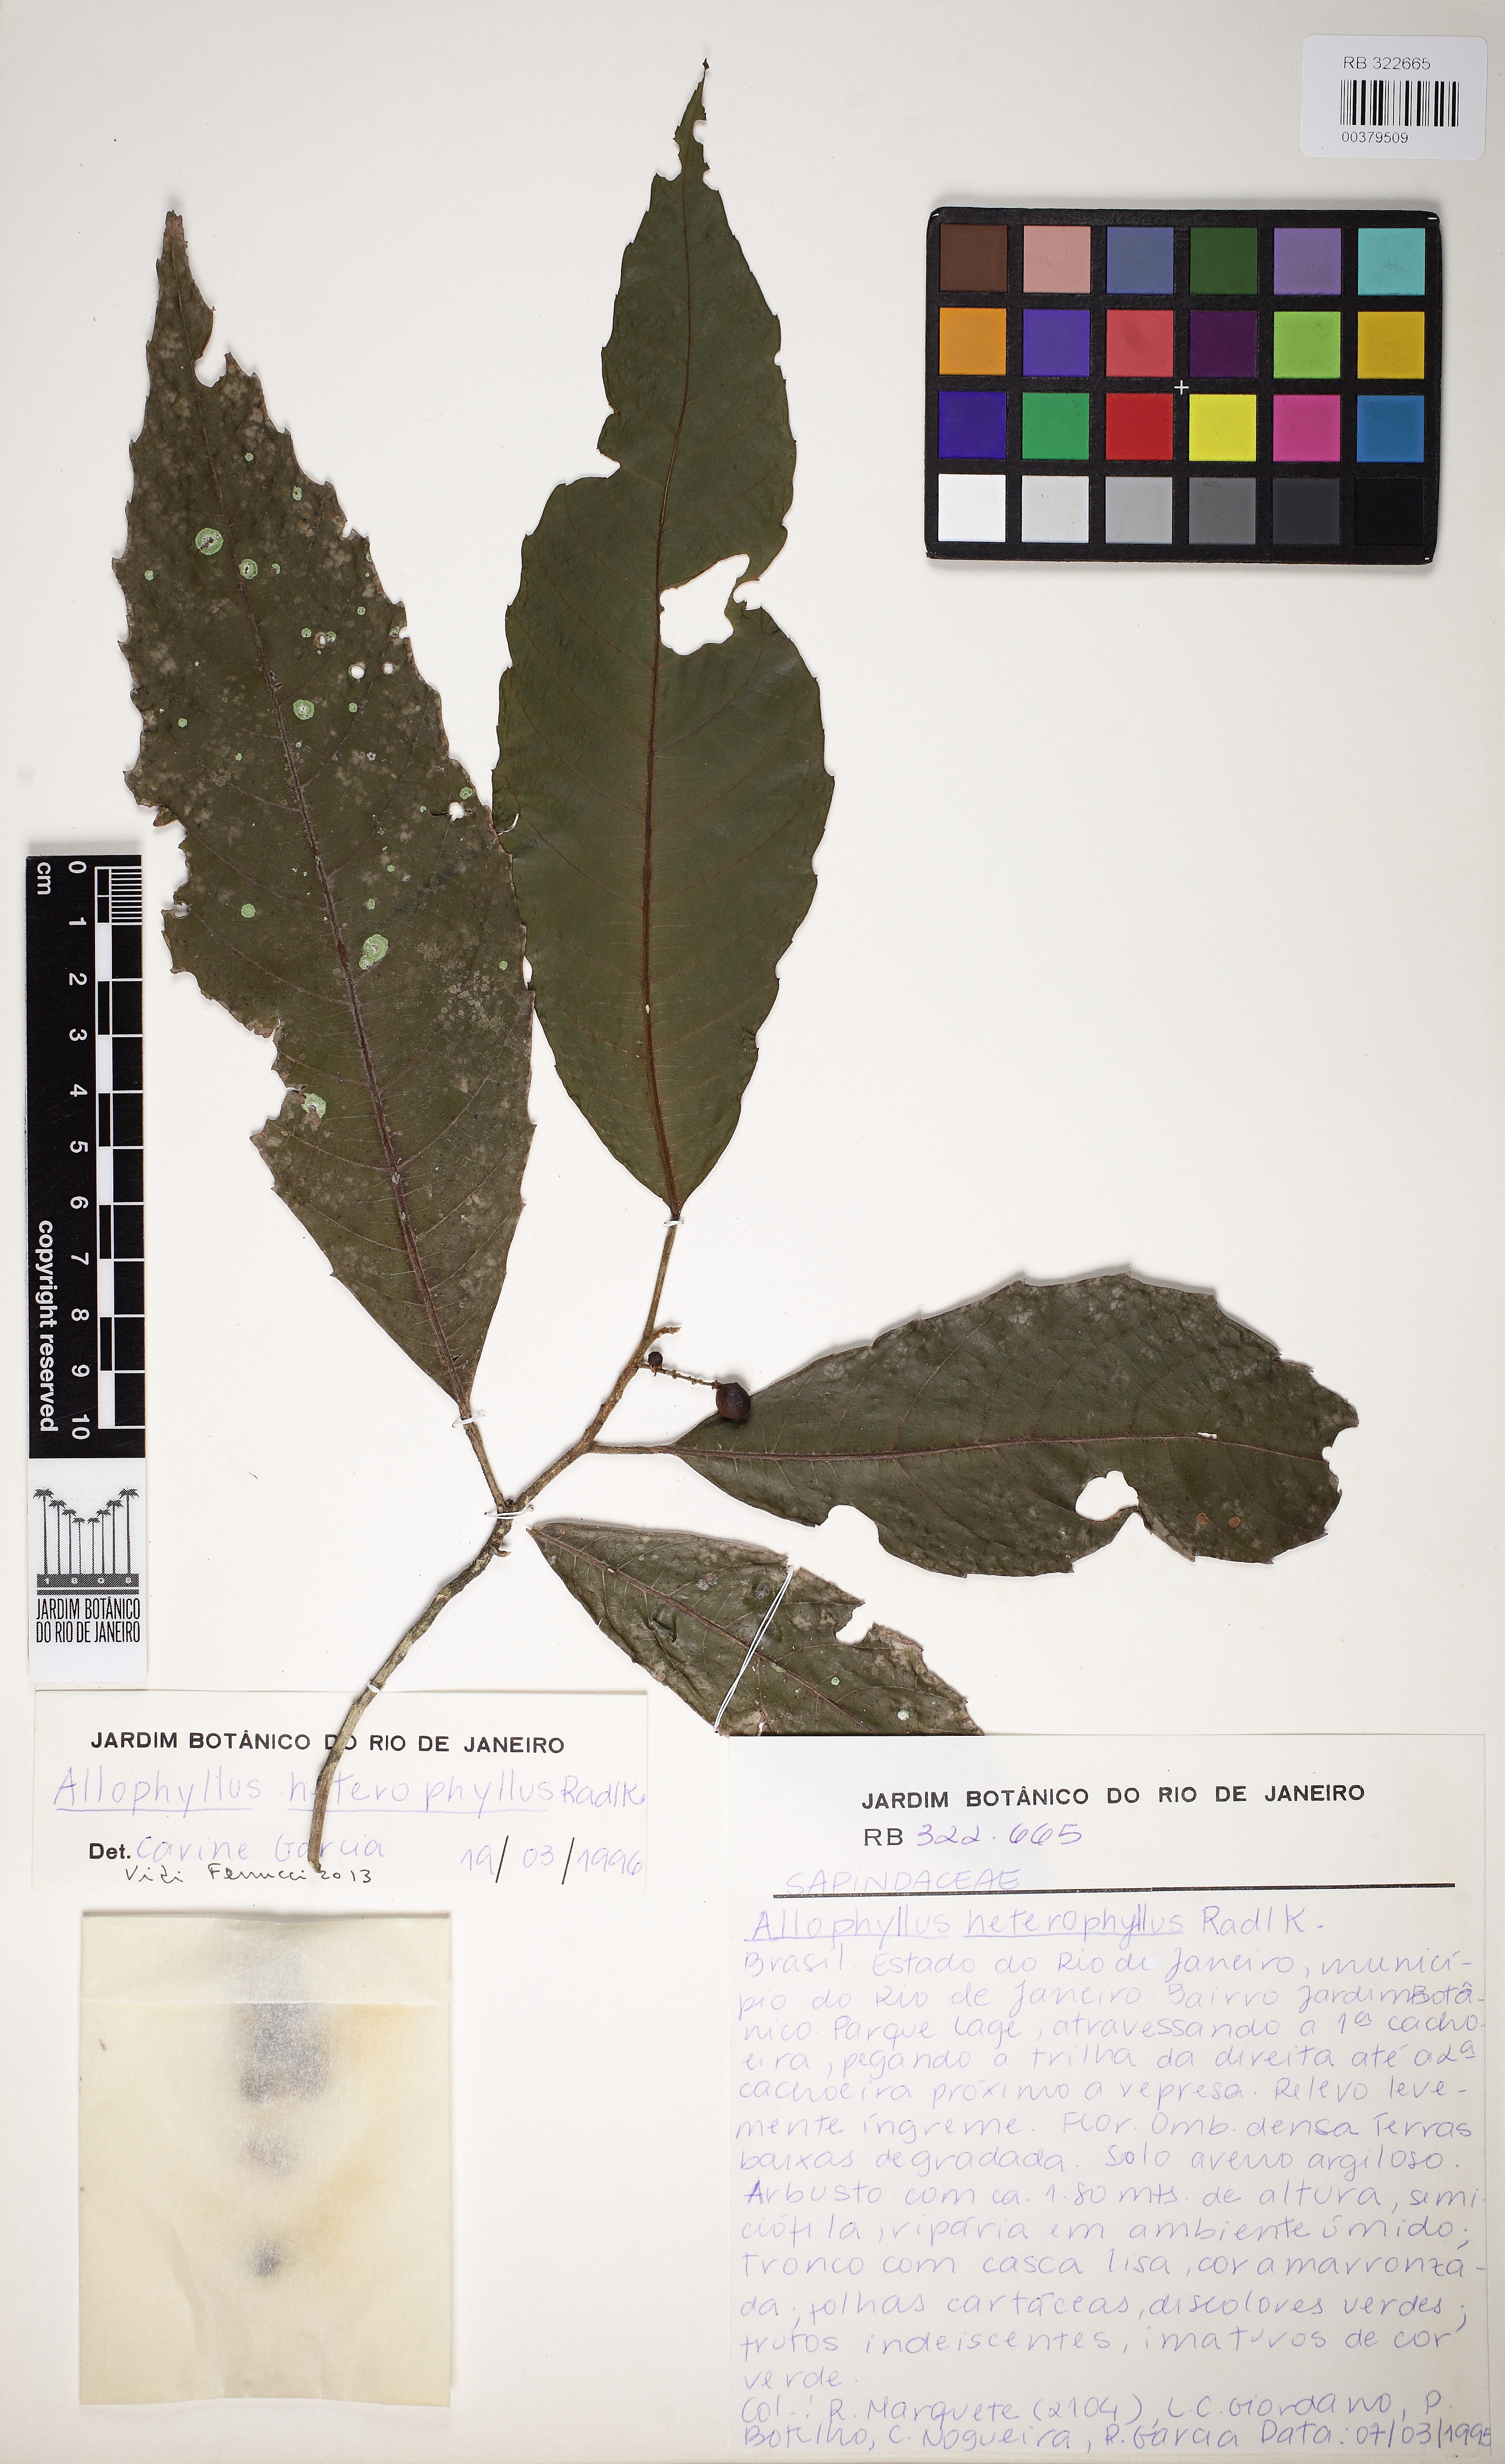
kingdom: Plantae
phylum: Tracheophyta
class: Magnoliopsida
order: Sapindales
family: Sapindaceae
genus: Allophylus
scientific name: Allophylus heterophyllus
